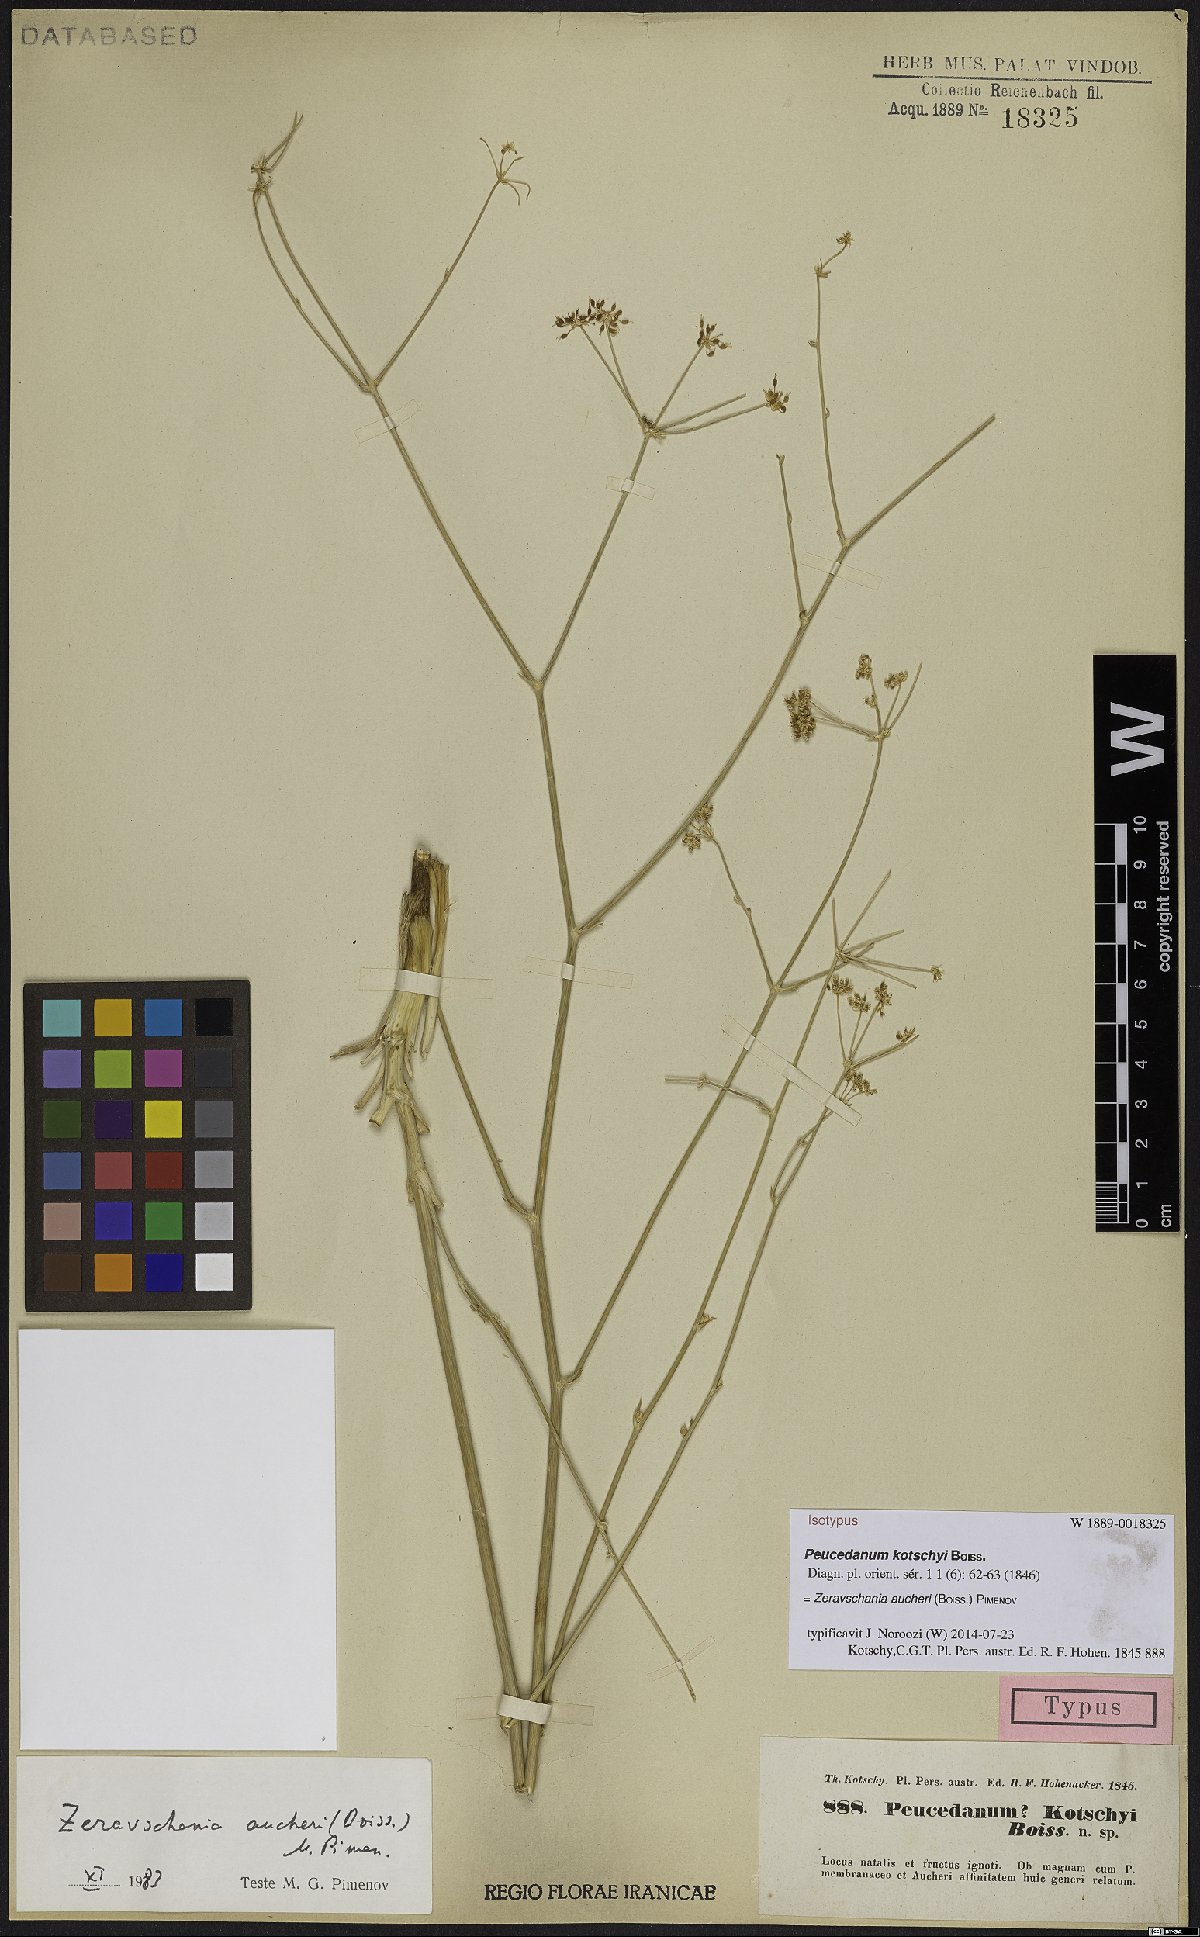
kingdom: Plantae
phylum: Tracheophyta
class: Magnoliopsida
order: Apiales
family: Apiaceae
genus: Zeravschania
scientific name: Zeravschania aucheri
